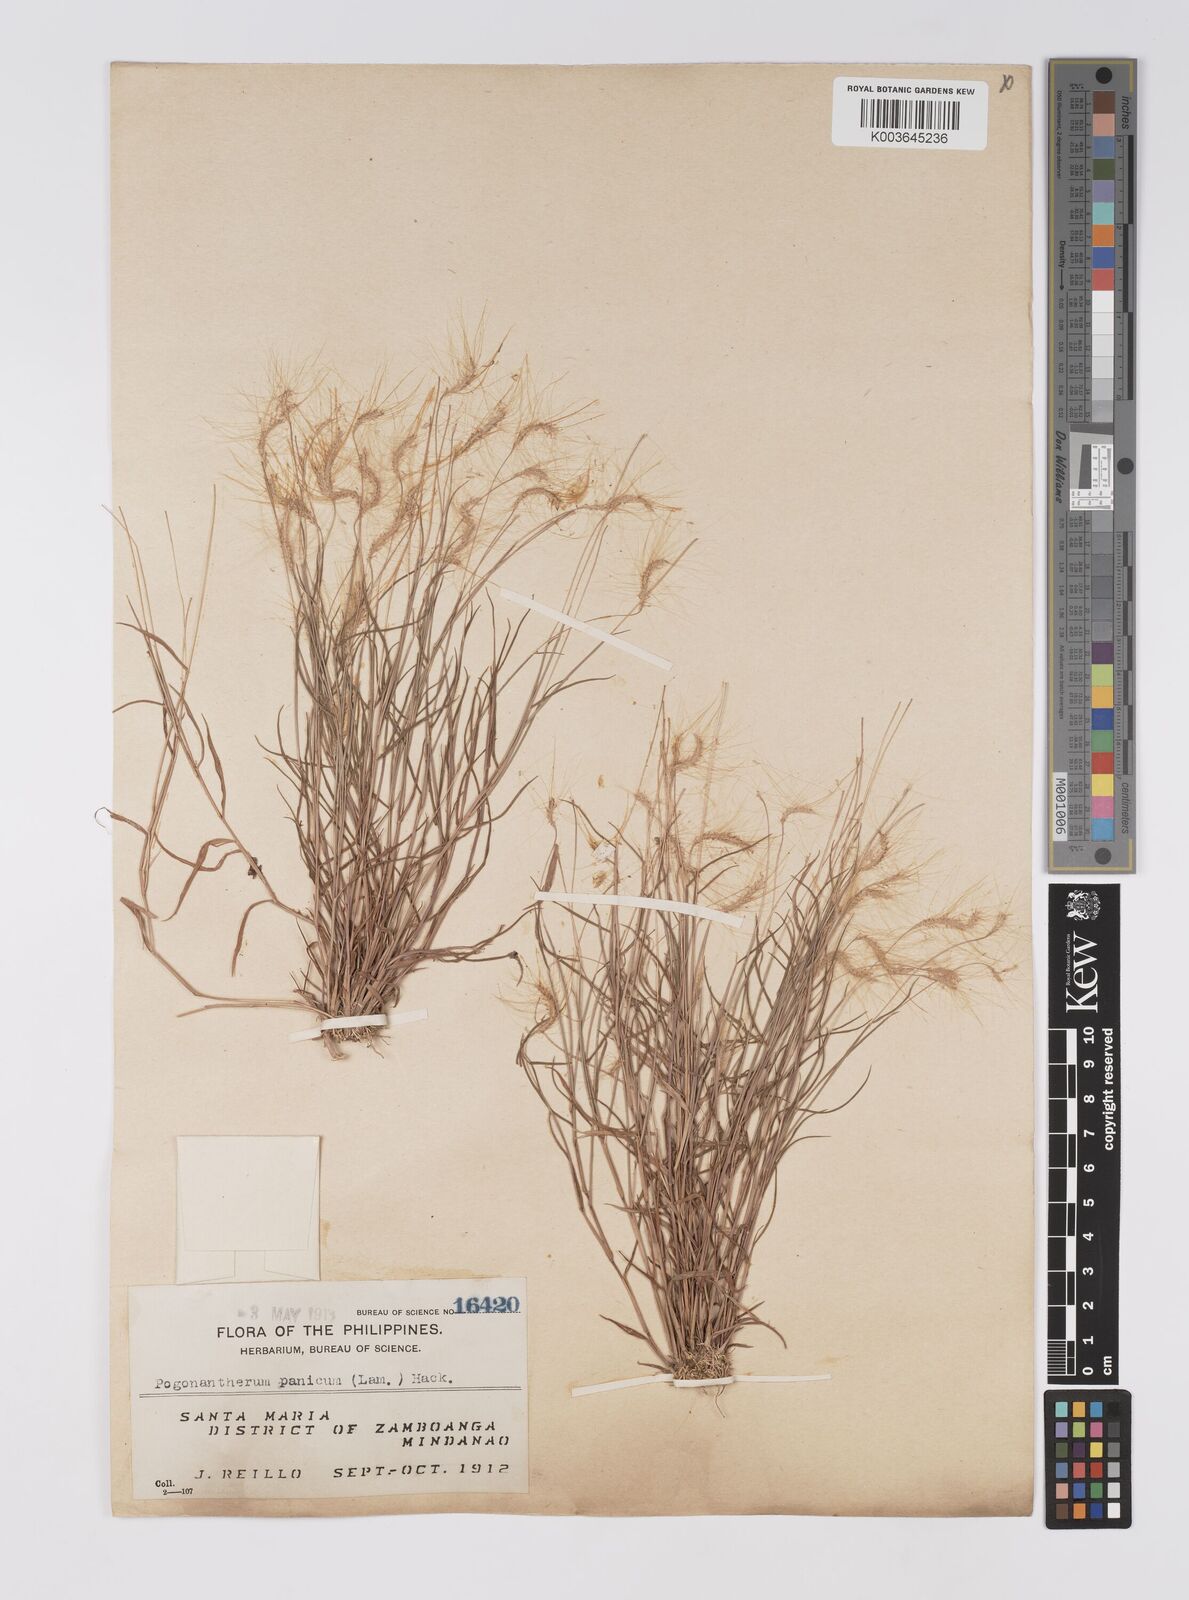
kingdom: Plantae
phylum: Tracheophyta
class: Liliopsida
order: Poales
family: Poaceae
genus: Pogonatherum
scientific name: Pogonatherum crinitum
